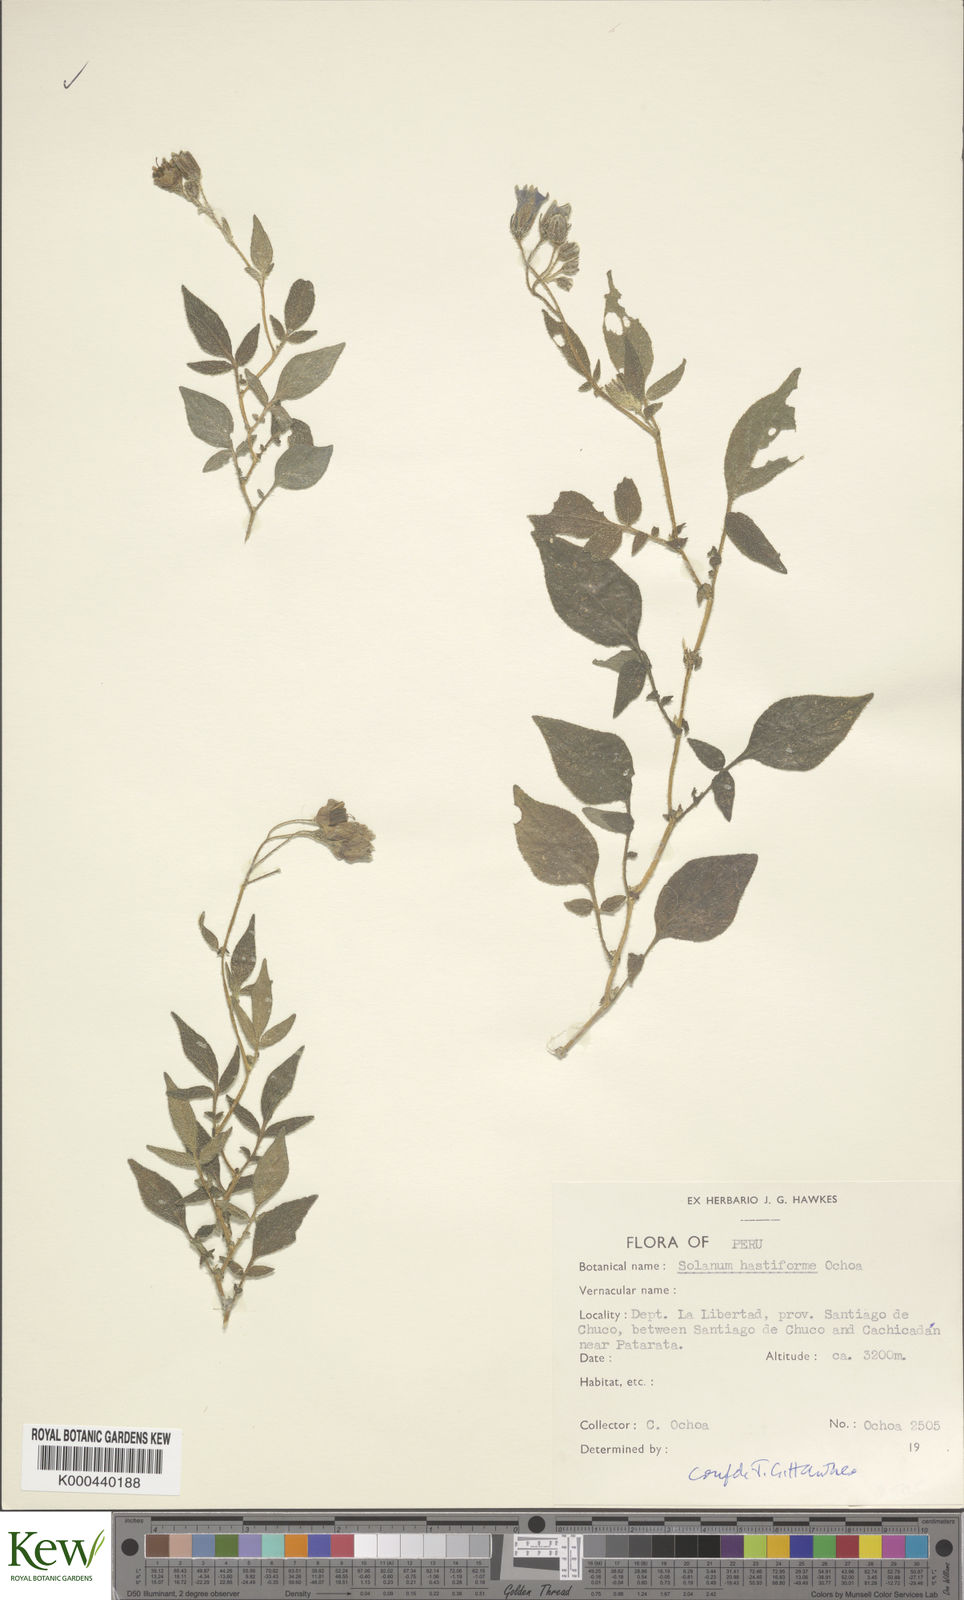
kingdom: Plantae
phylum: Tracheophyta
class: Magnoliopsida
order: Solanales
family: Solanaceae
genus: Solanum
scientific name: Solanum hastiforme
